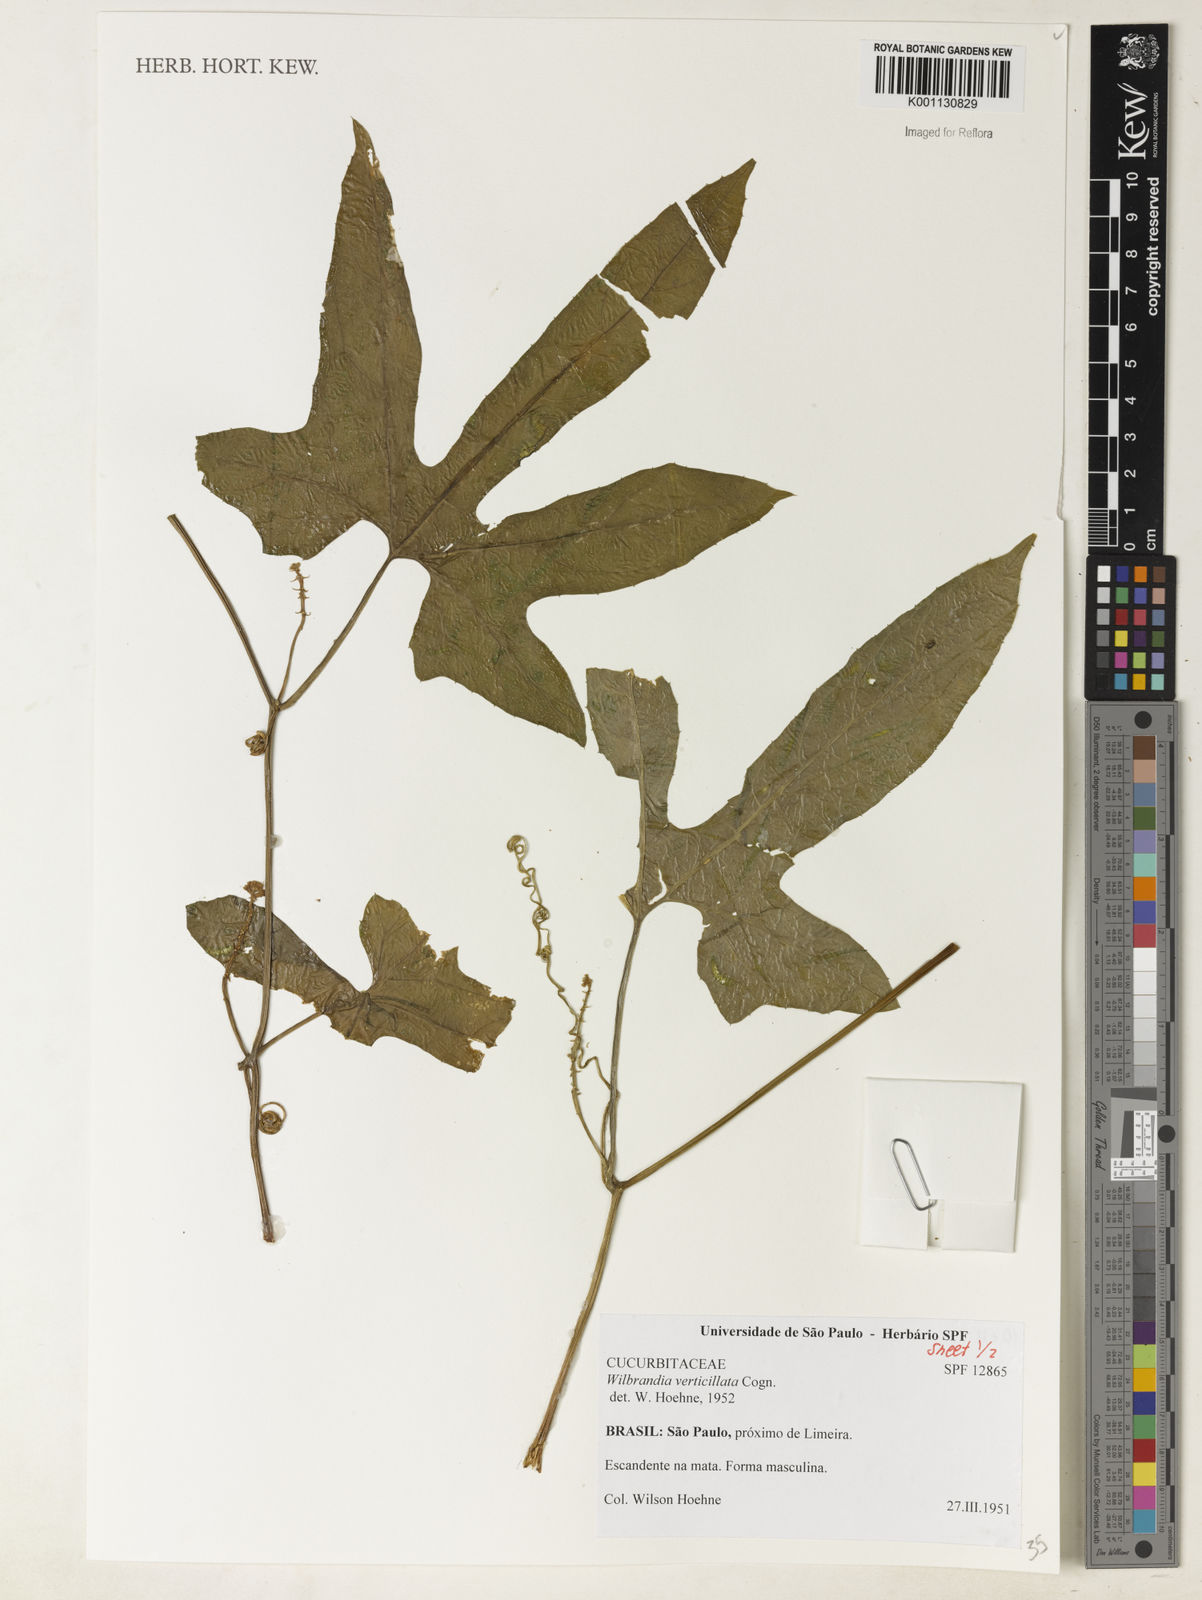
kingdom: Plantae
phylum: Tracheophyta
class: Magnoliopsida
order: Cucurbitales
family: Cucurbitaceae
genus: Wilbrandia
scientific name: Wilbrandia verticillata
